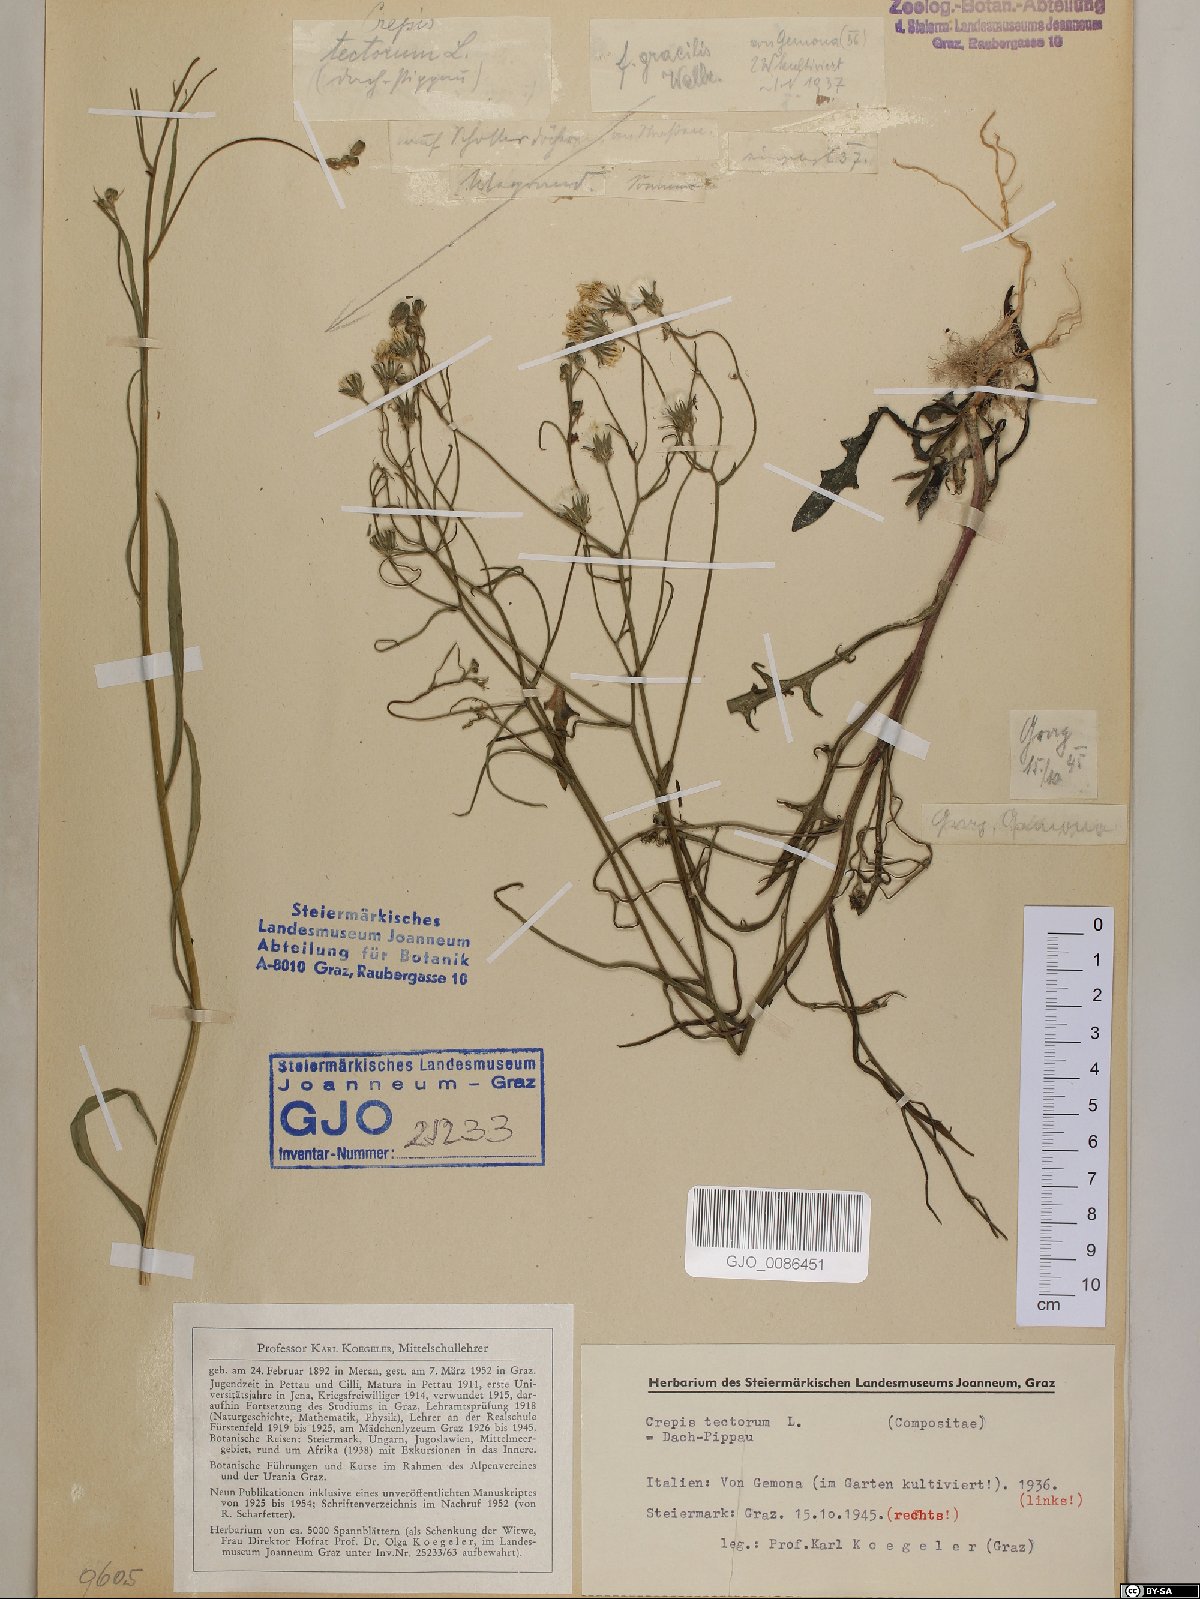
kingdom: Plantae
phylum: Tracheophyta
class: Magnoliopsida
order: Asterales
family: Asteraceae
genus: Crepis
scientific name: Crepis tectorum
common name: Narrow-leaved hawk's-beard
